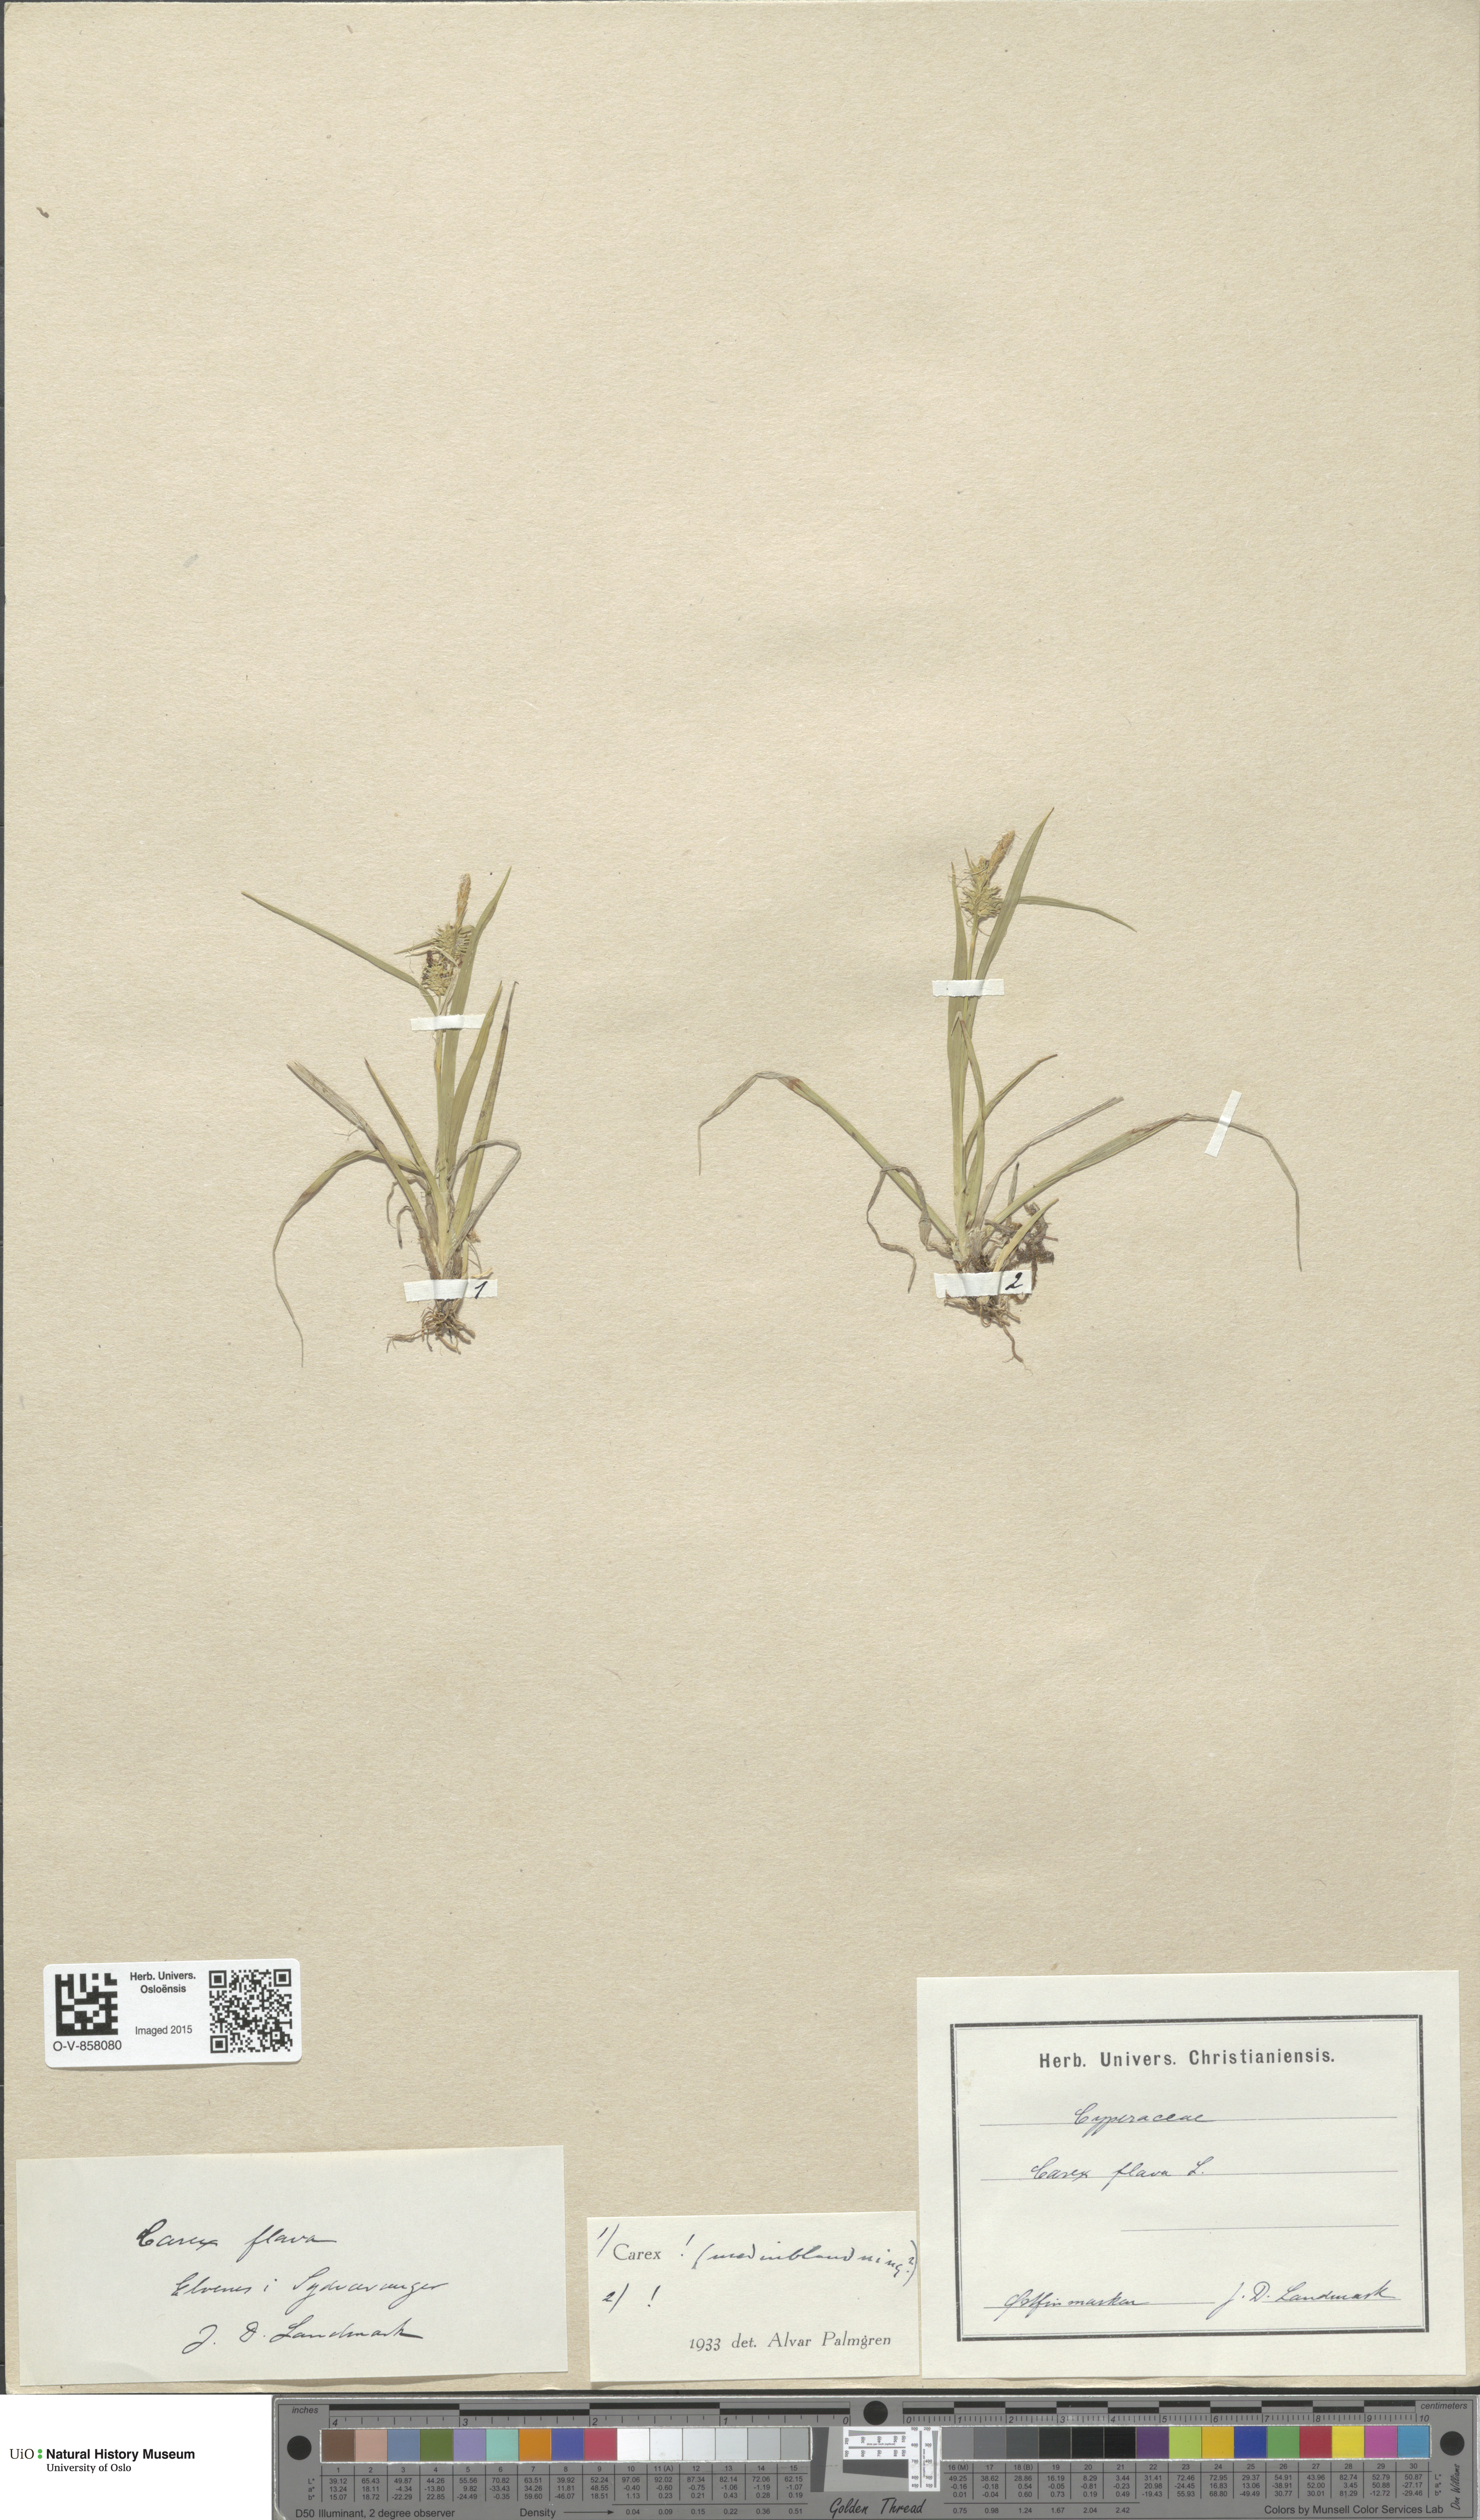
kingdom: Plantae
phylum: Tracheophyta
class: Liliopsida
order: Poales
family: Cyperaceae
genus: Carex
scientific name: Carex flava
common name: Large yellow-sedge
